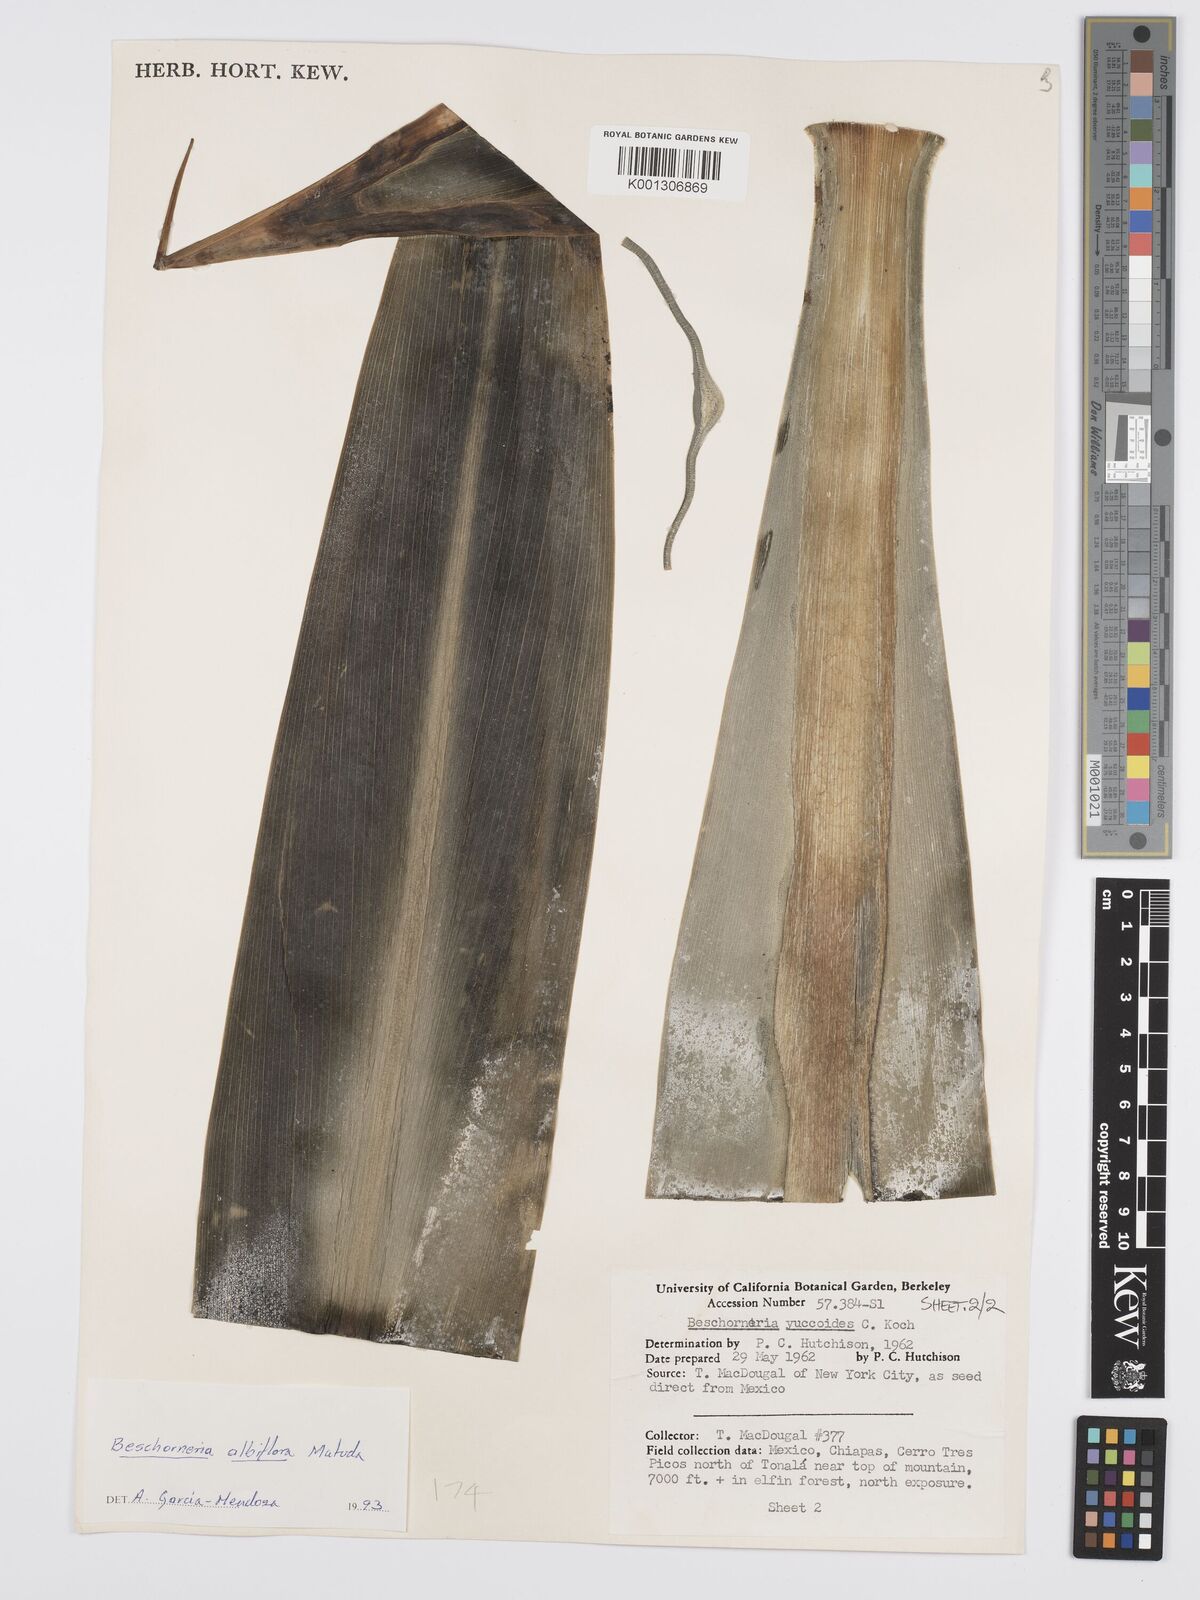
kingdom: Plantae
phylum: Tracheophyta
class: Liliopsida
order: Asparagales
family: Asparagaceae
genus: Beschorneria
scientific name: Beschorneria albiflora
